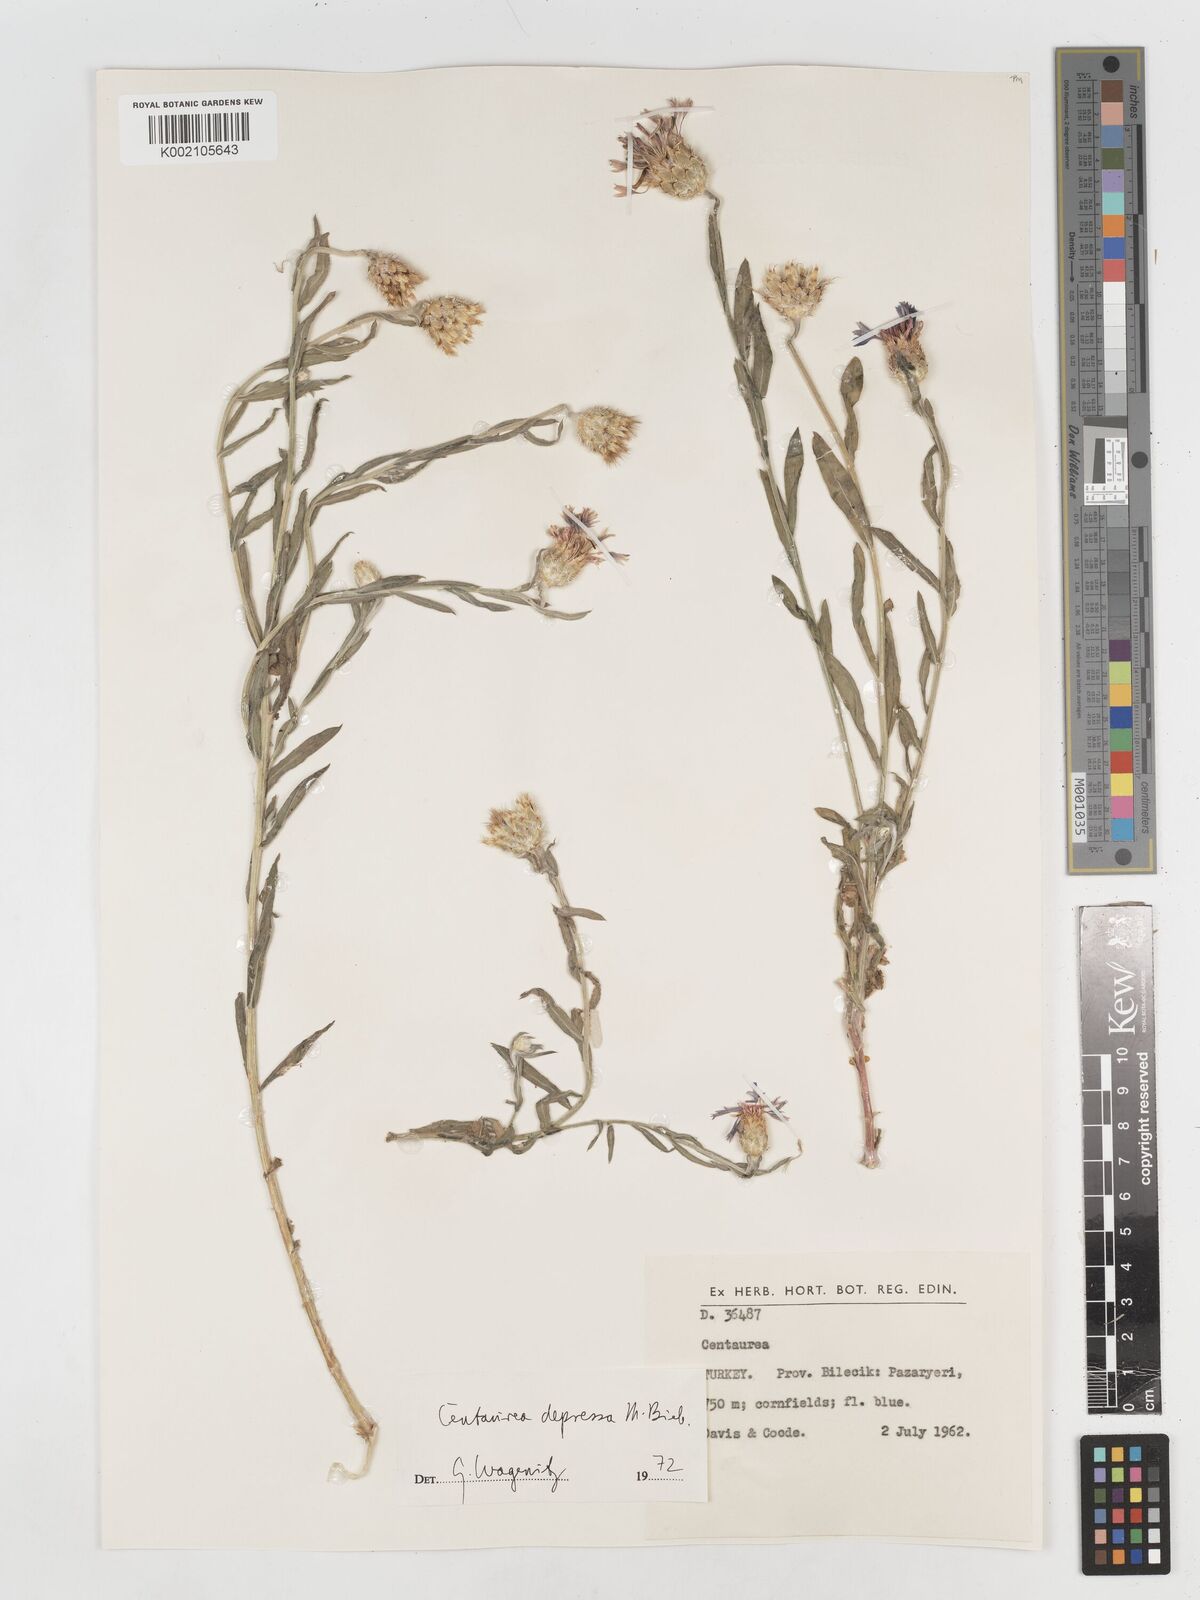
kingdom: Plantae
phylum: Tracheophyta
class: Magnoliopsida
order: Asterales
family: Asteraceae
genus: Centaurea
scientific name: Centaurea depressa
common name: Iranian knapweed
